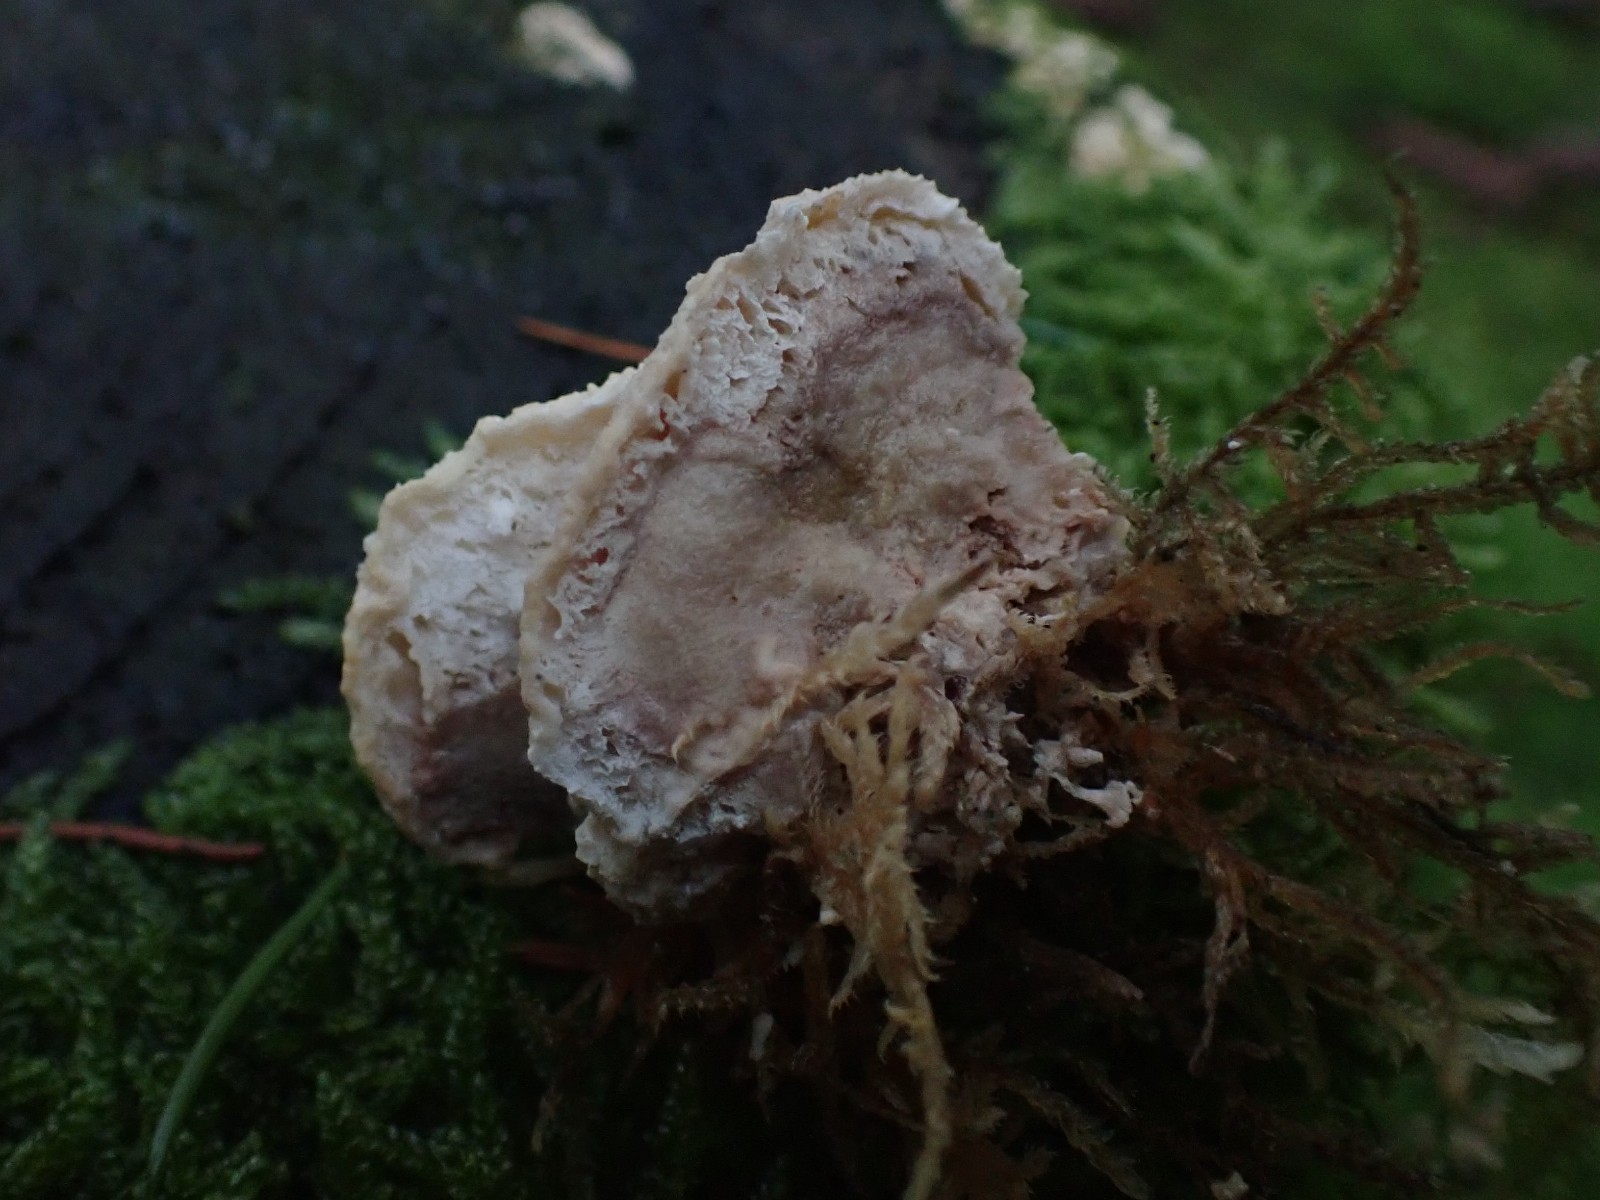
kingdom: Fungi
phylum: Basidiomycota
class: Agaricomycetes
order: Polyporales
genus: Calcipostia
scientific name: Calcipostia guttulata
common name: dråbe-kødporesvamp
